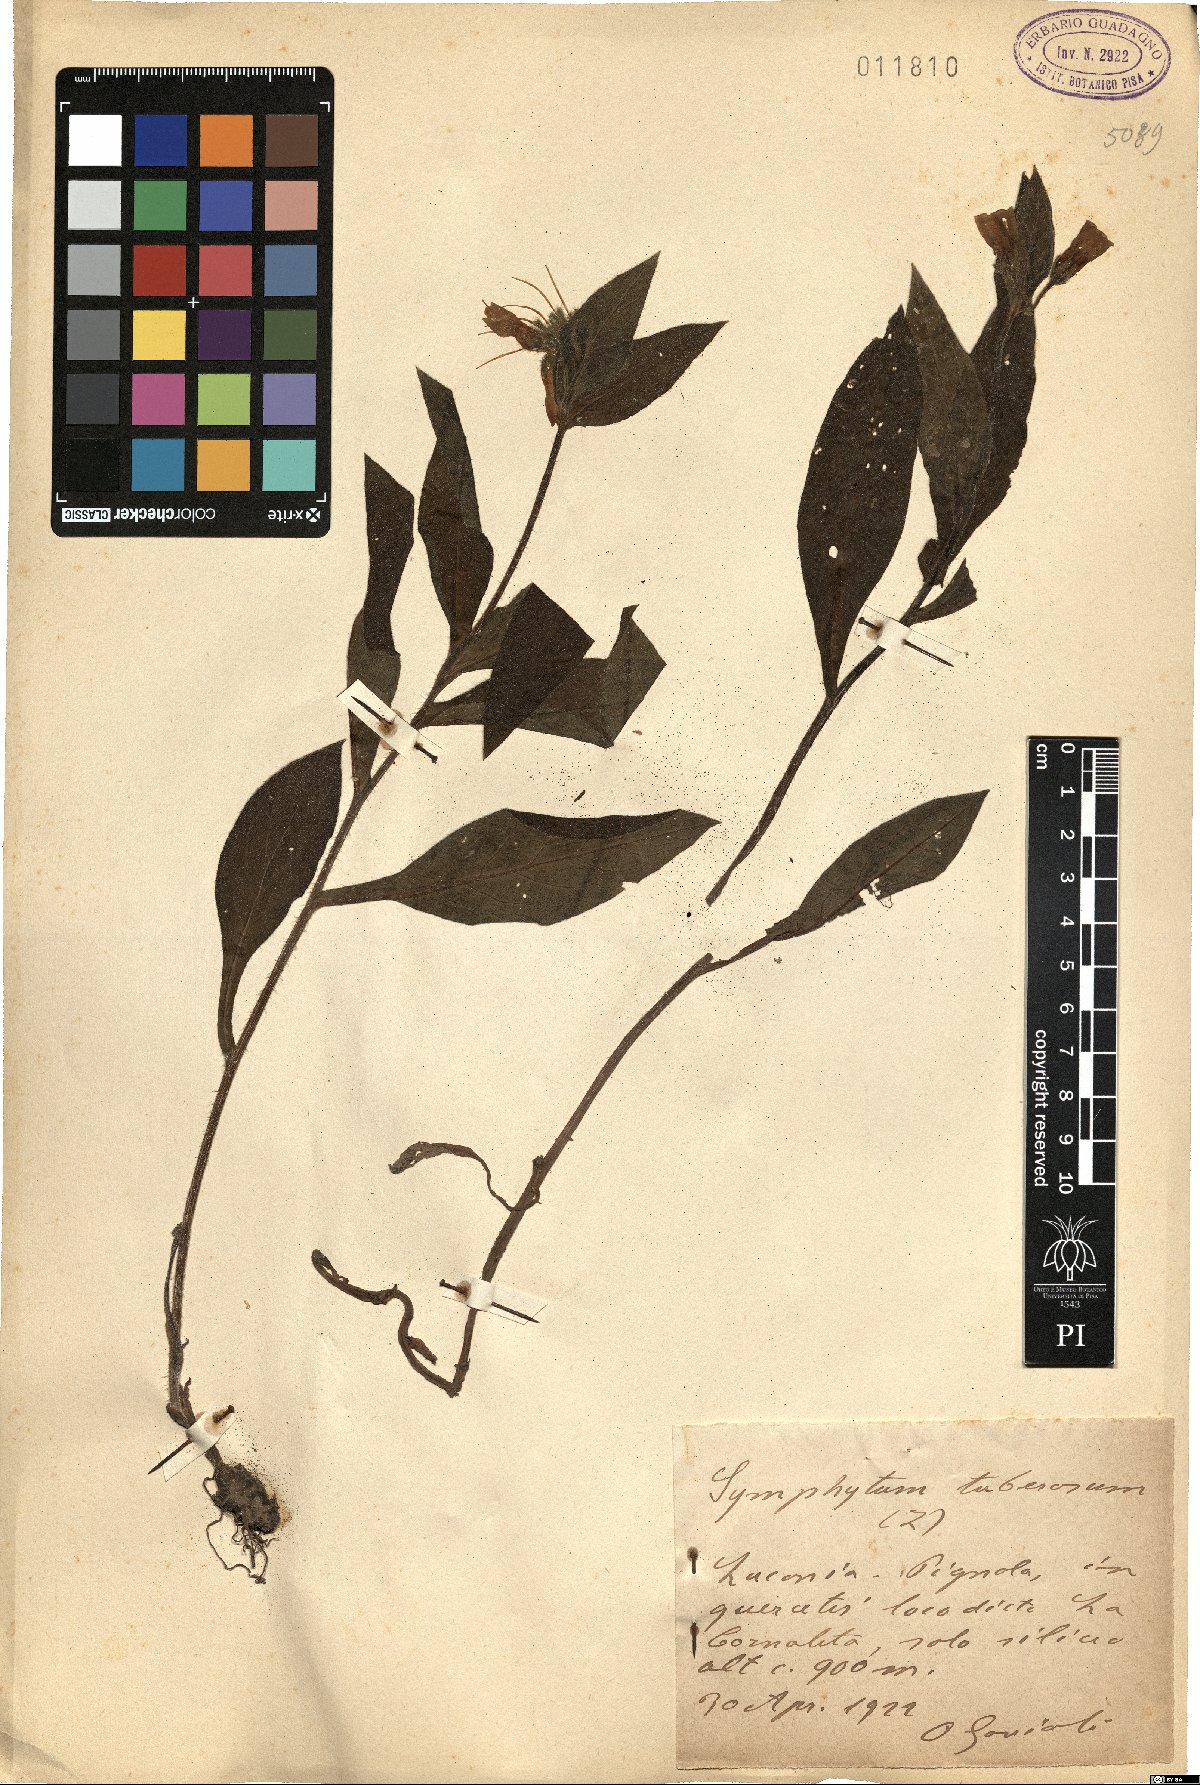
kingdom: Plantae
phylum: Tracheophyta
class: Magnoliopsida
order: Boraginales
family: Boraginaceae
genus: Symphytum
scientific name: Symphytum tuberosum
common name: Tuberous comfrey
